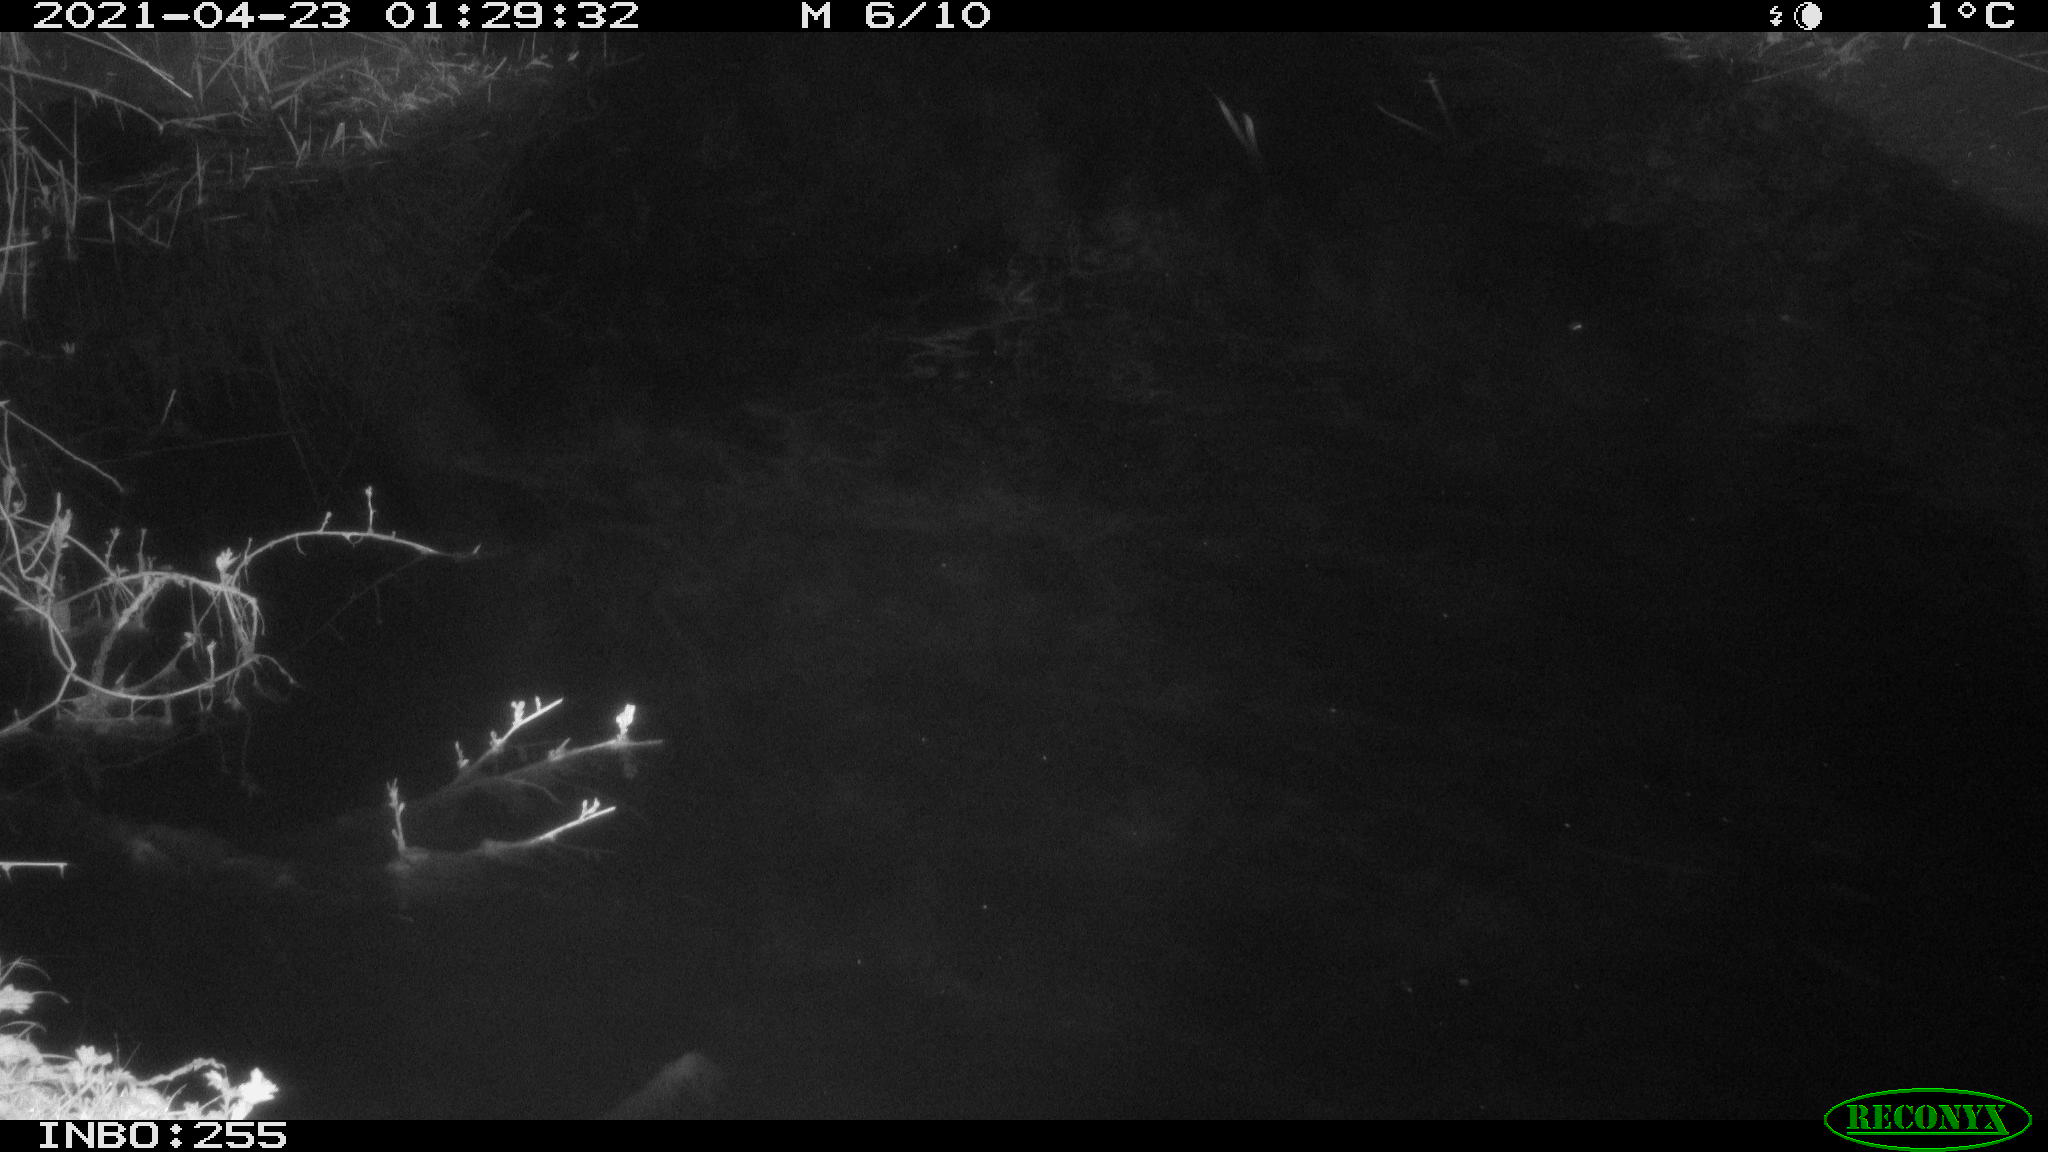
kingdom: Animalia
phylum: Chordata
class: Aves
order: Anseriformes
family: Anatidae
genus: Anas
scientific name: Anas platyrhynchos
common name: Mallard
